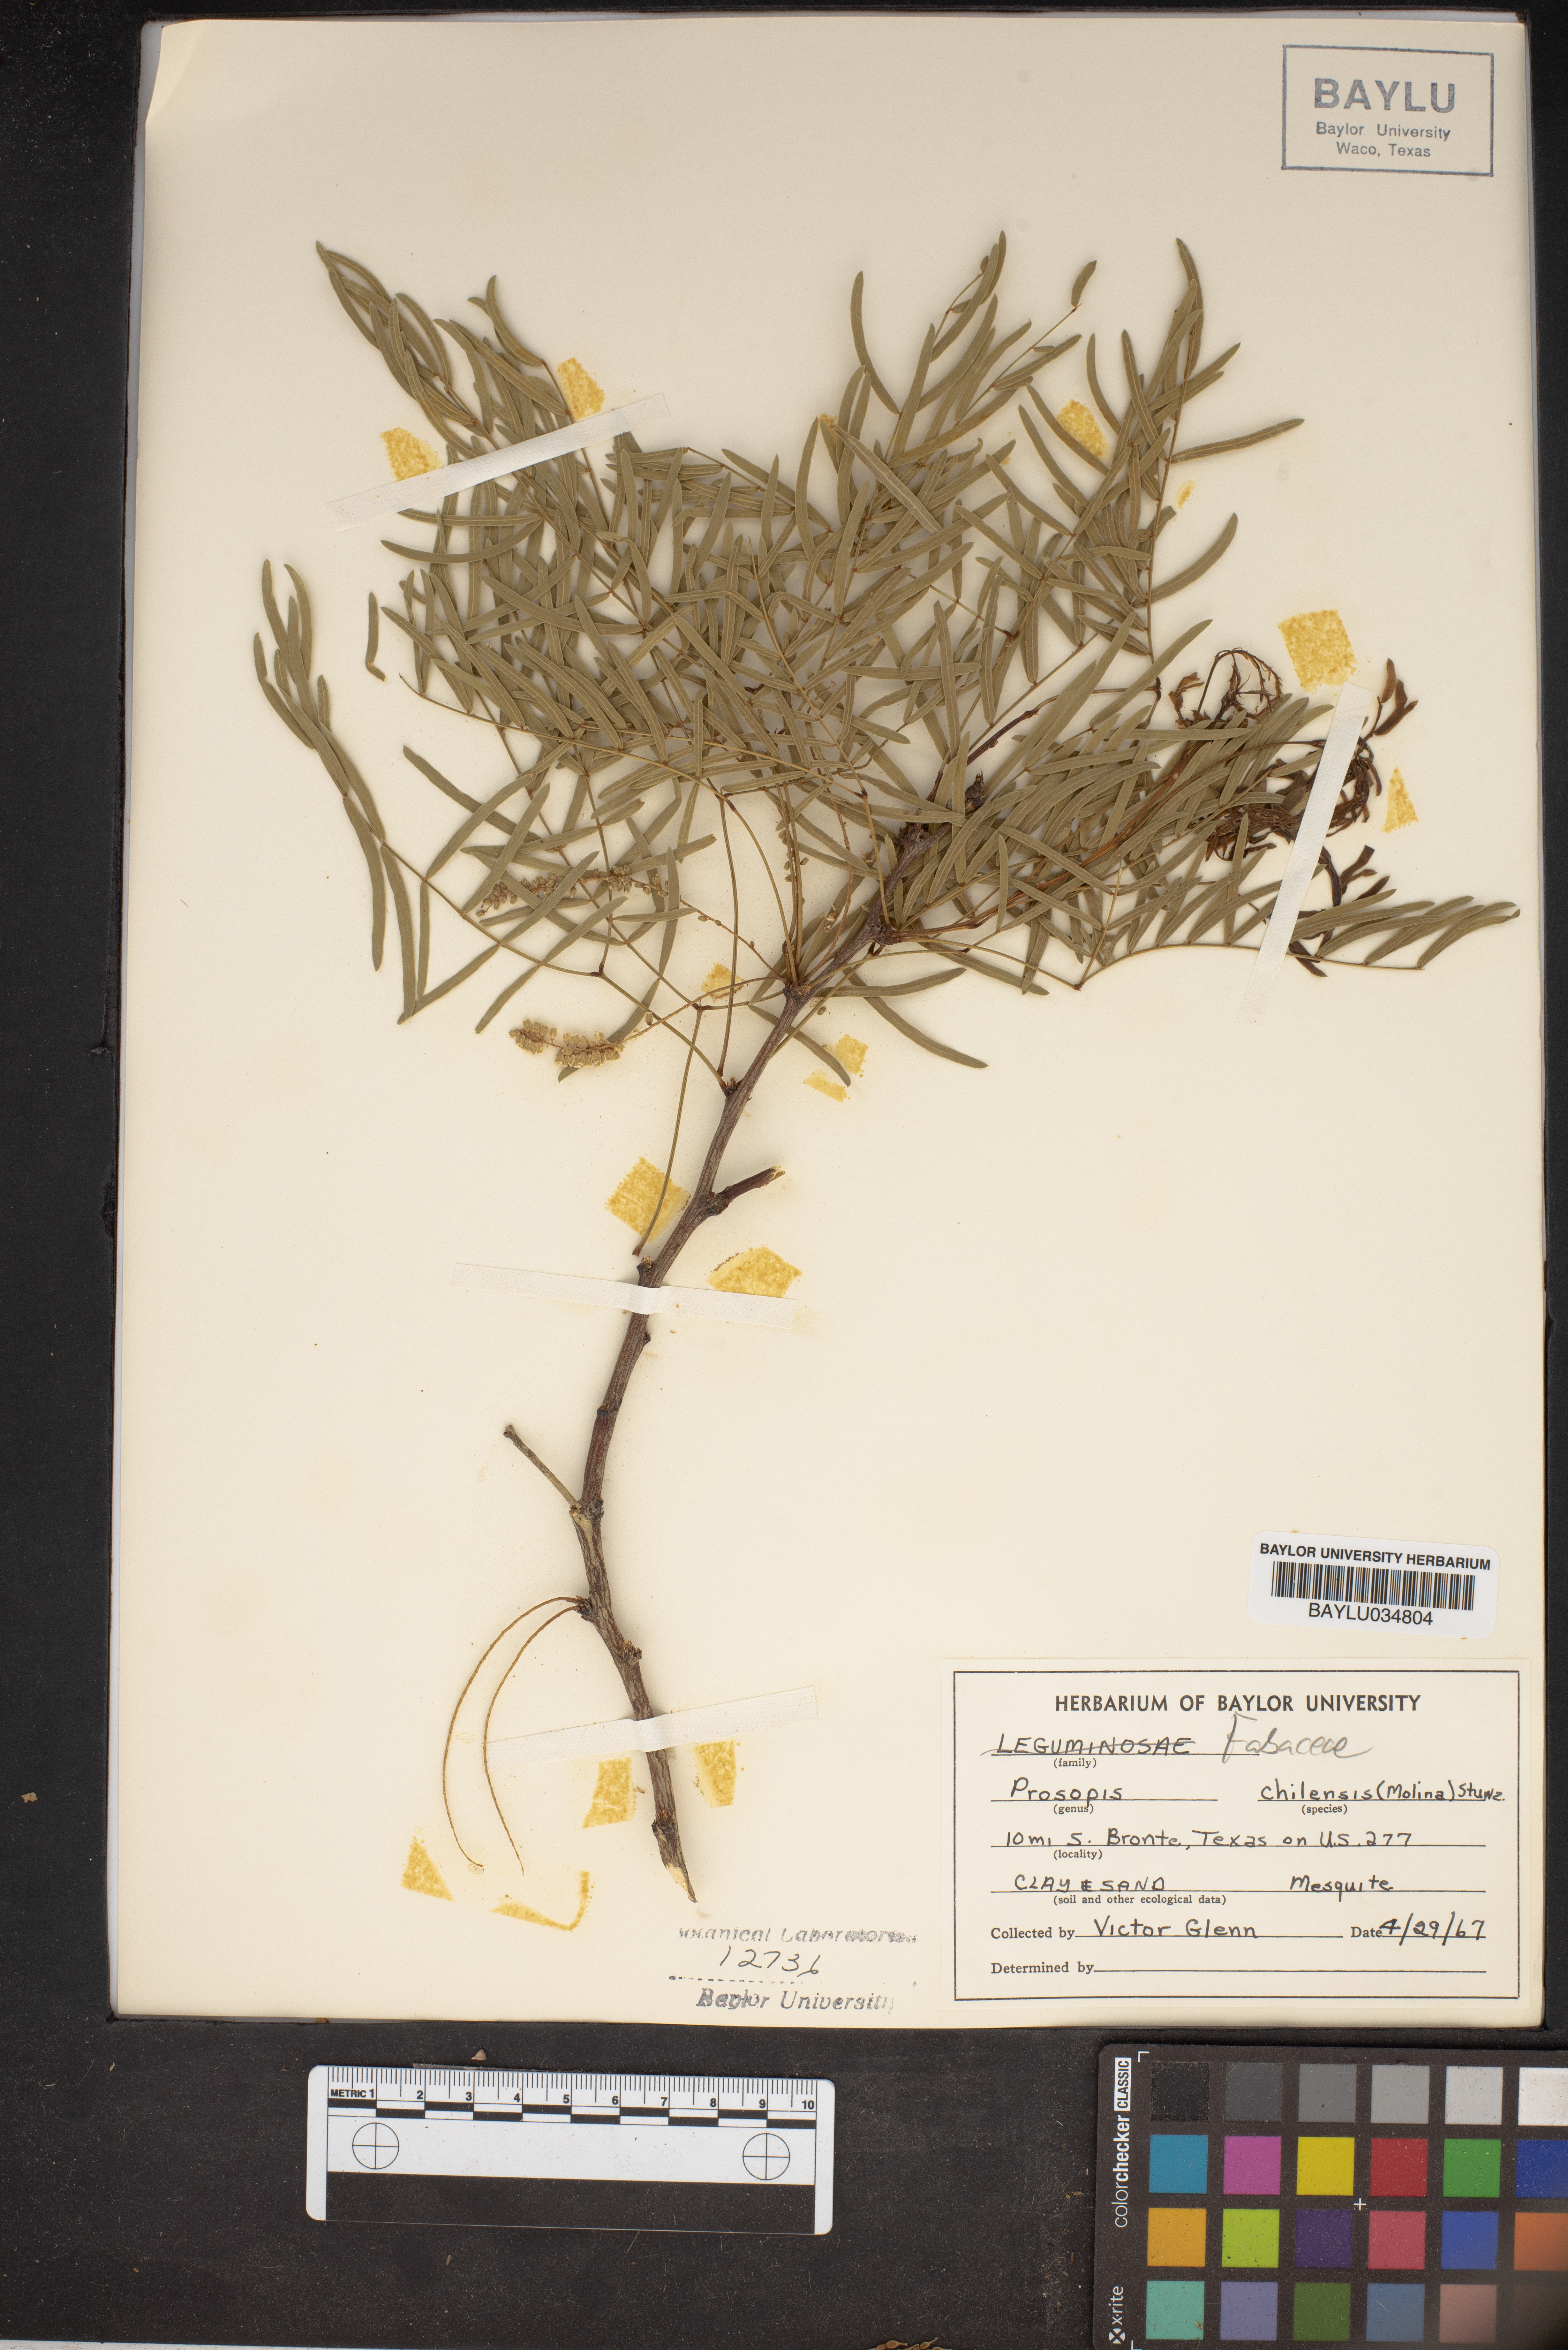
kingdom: Plantae
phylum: Tracheophyta
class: Magnoliopsida
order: Fabales
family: Fabaceae
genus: Prosopis
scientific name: Prosopis chilensis
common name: Chilean algarrobo
